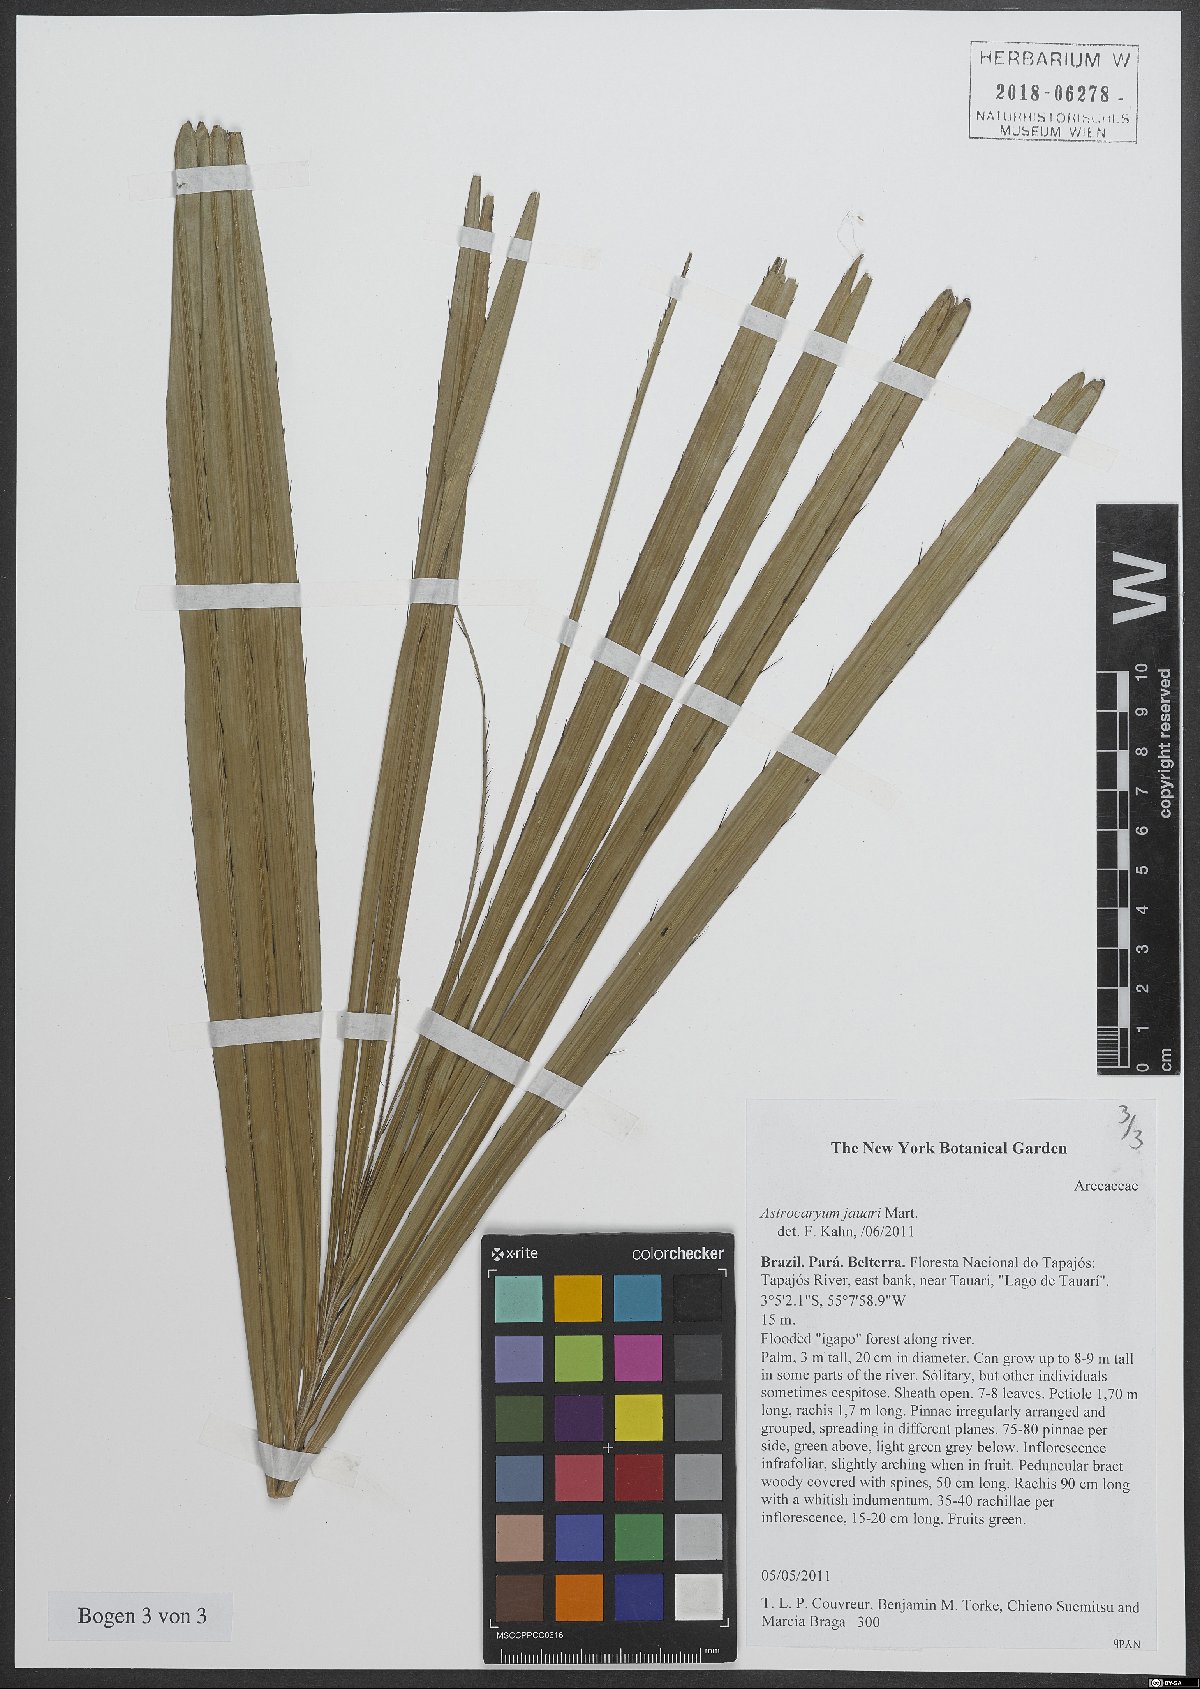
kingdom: Plantae
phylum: Tracheophyta
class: Liliopsida
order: Arecales
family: Arecaceae
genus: Astrocaryum
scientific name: Astrocaryum jauari
